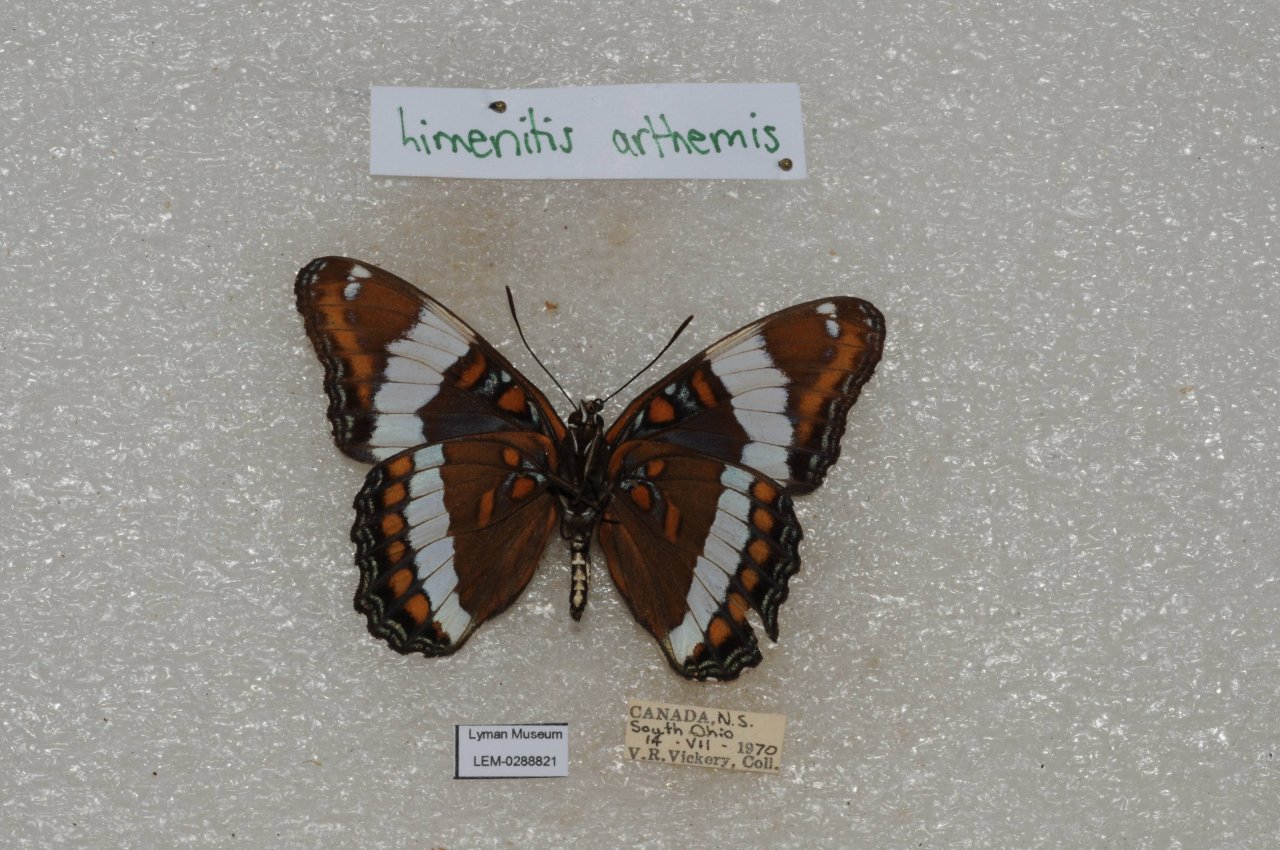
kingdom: Animalia
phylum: Arthropoda
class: Insecta
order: Lepidoptera
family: Nymphalidae
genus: Limenitis
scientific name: Limenitis arthemis
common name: Red-spotted Admiral
